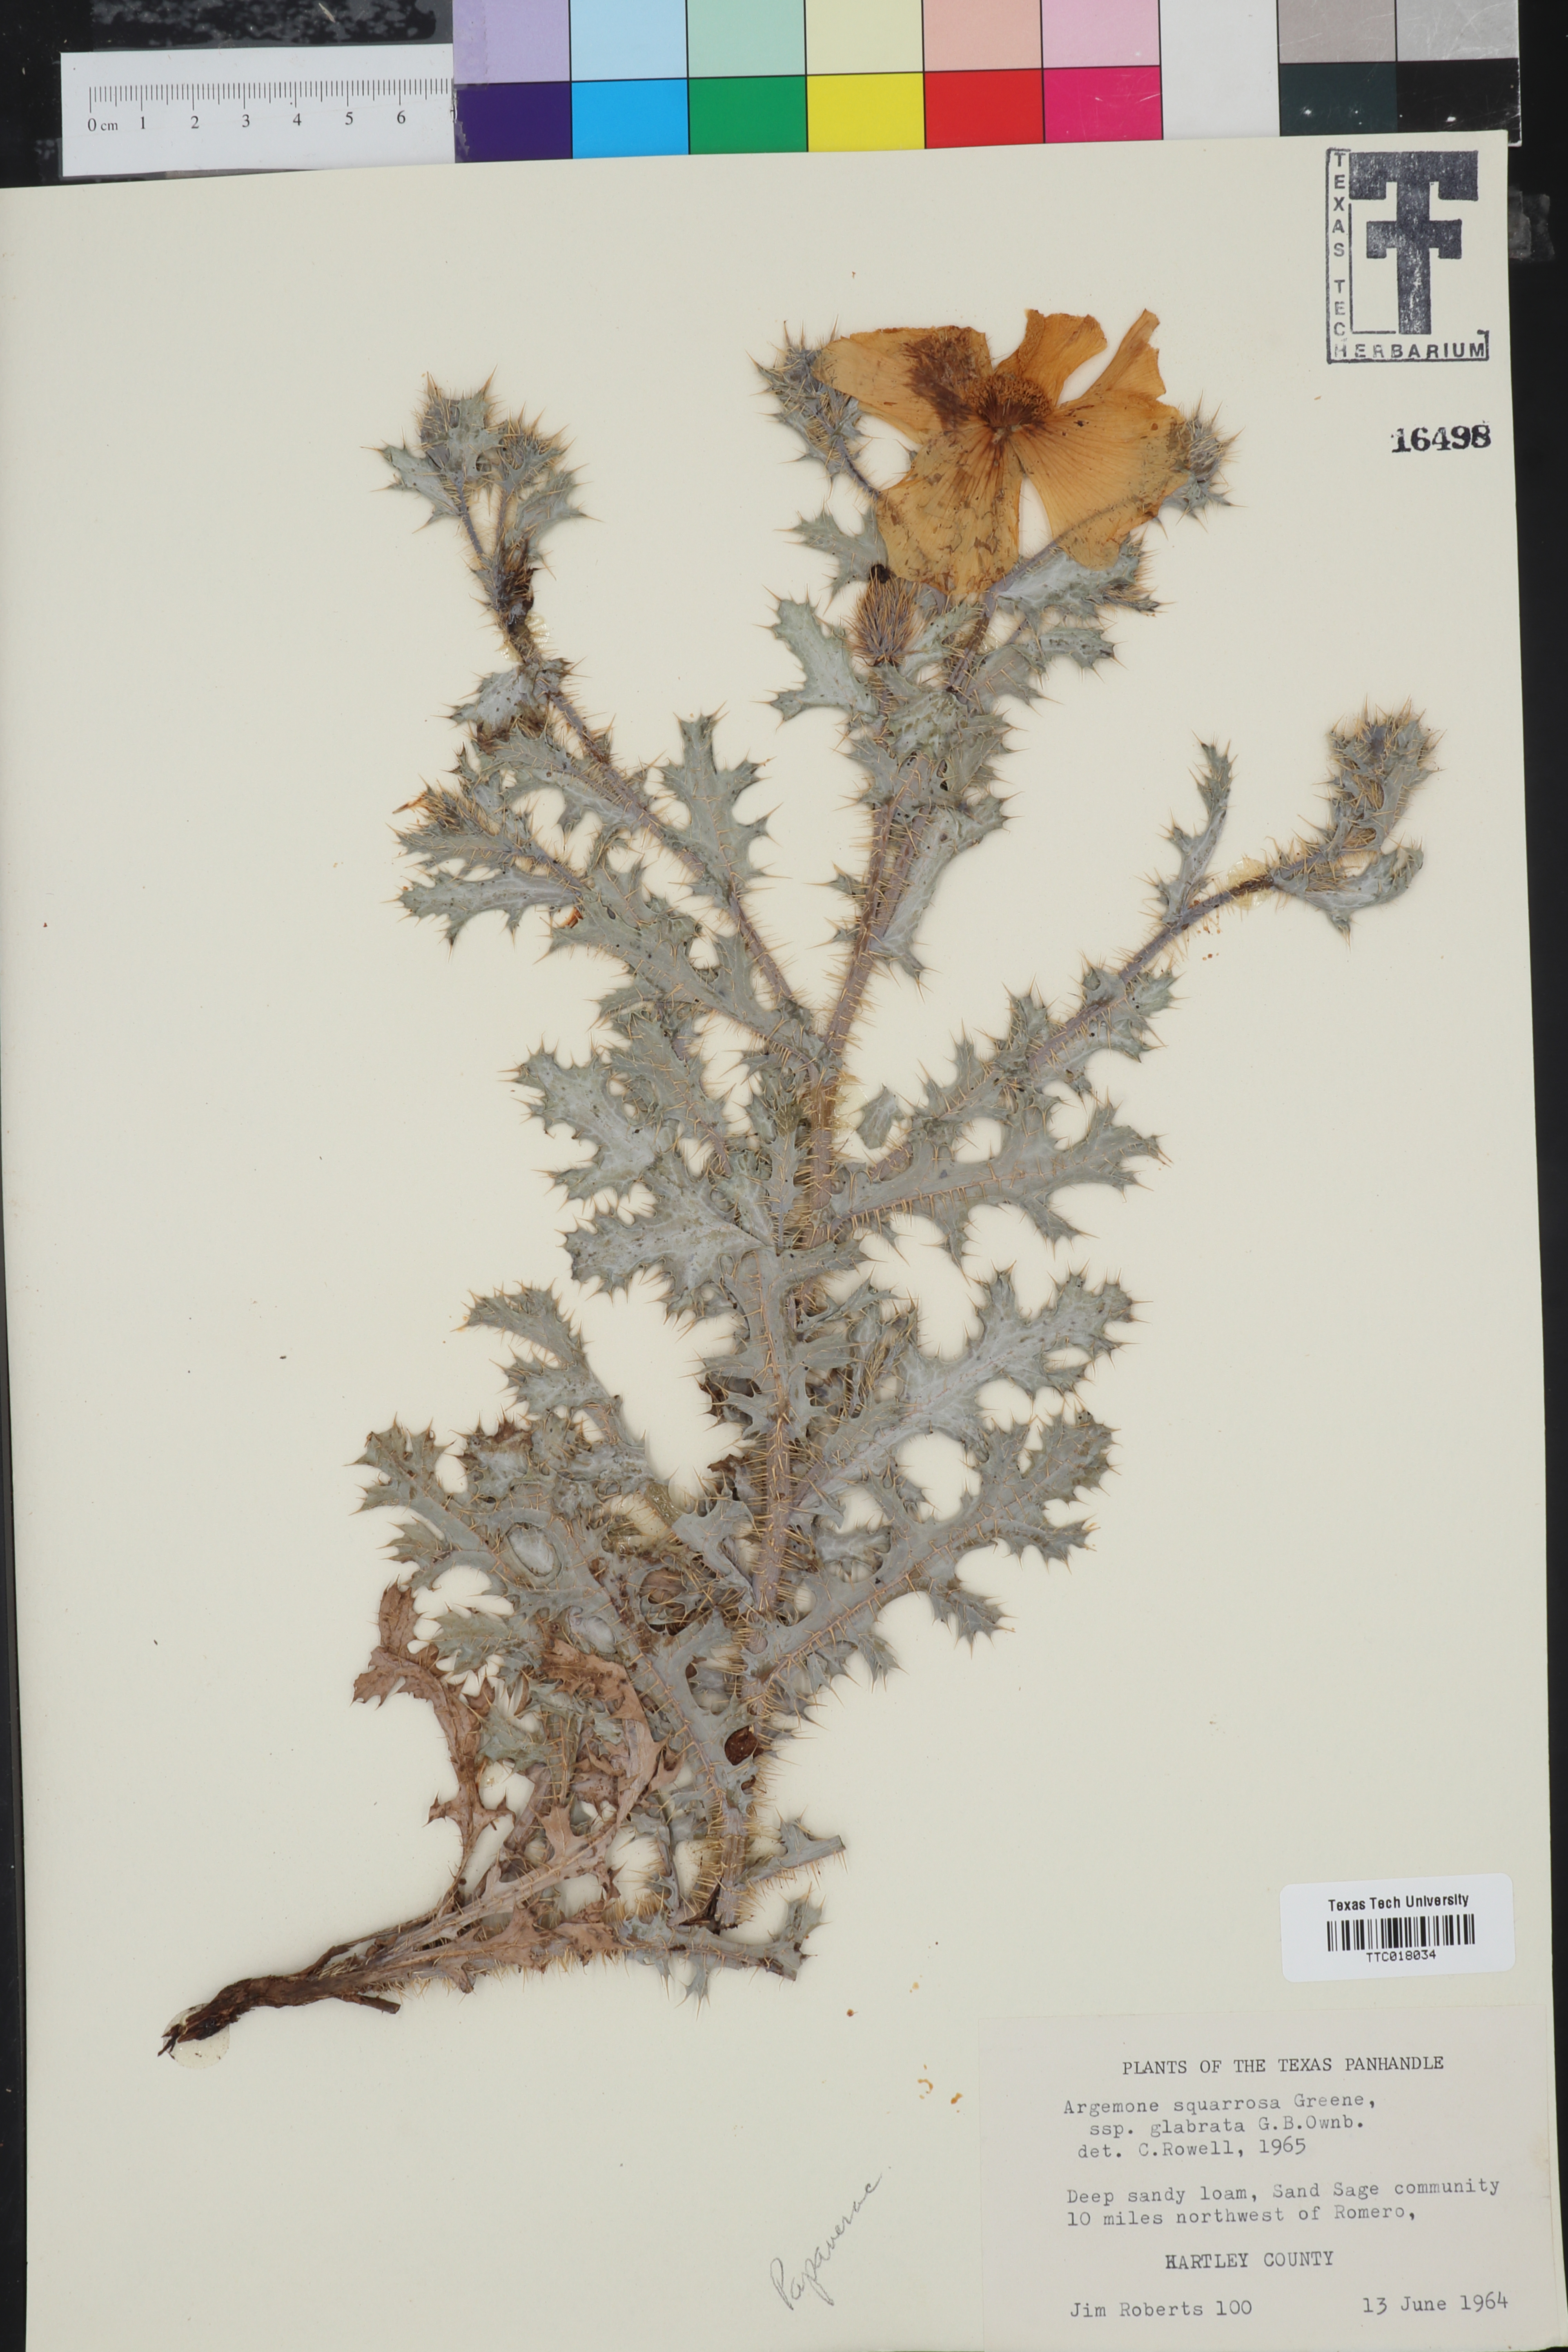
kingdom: Plantae
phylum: Tracheophyta
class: Magnoliopsida
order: Ranunculales
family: Papaveraceae
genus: Argemone
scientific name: Argemone squarrosa
